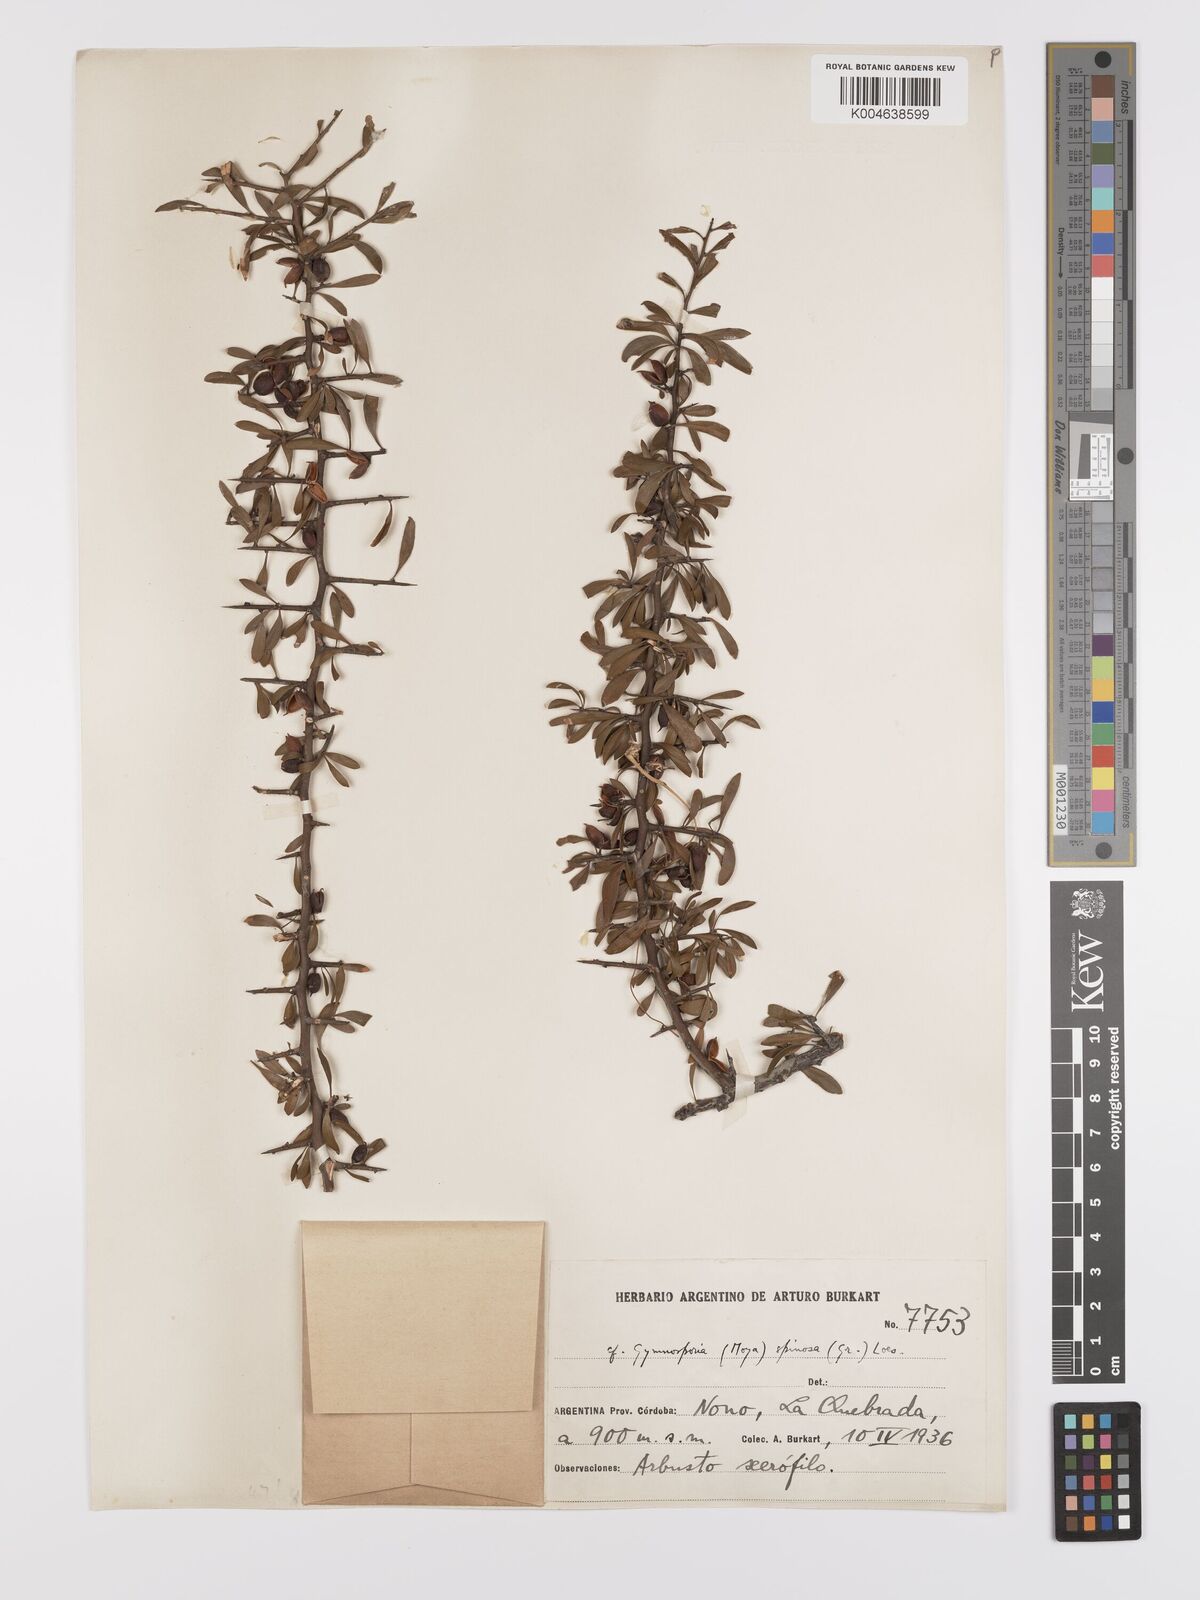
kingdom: Plantae
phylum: Tracheophyta
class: Magnoliopsida
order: Celastrales
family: Celastraceae
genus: Monteverdia
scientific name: Monteverdia spinosa
